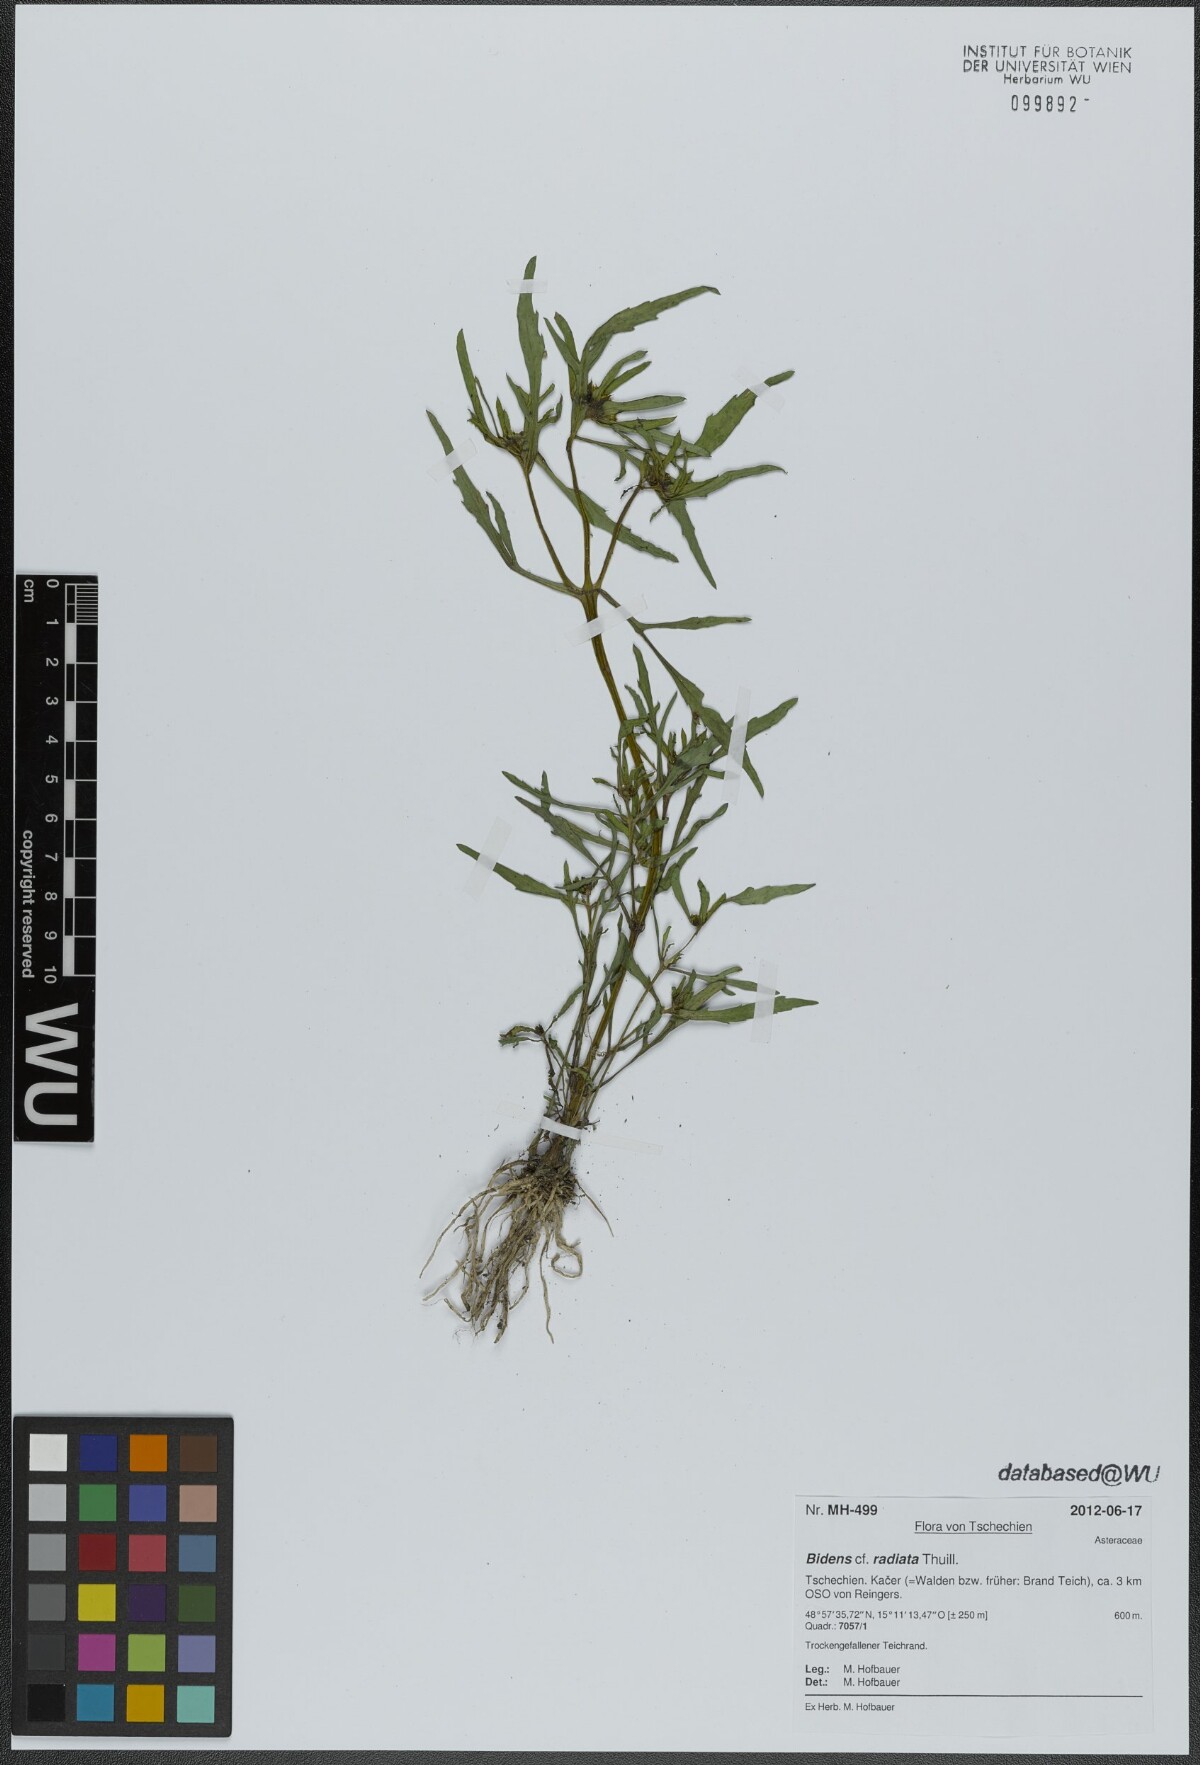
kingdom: Plantae
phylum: Tracheophyta
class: Magnoliopsida
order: Asterales
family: Asteraceae
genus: Bidens
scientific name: Bidens radiata
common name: Radiating bur-marigold
